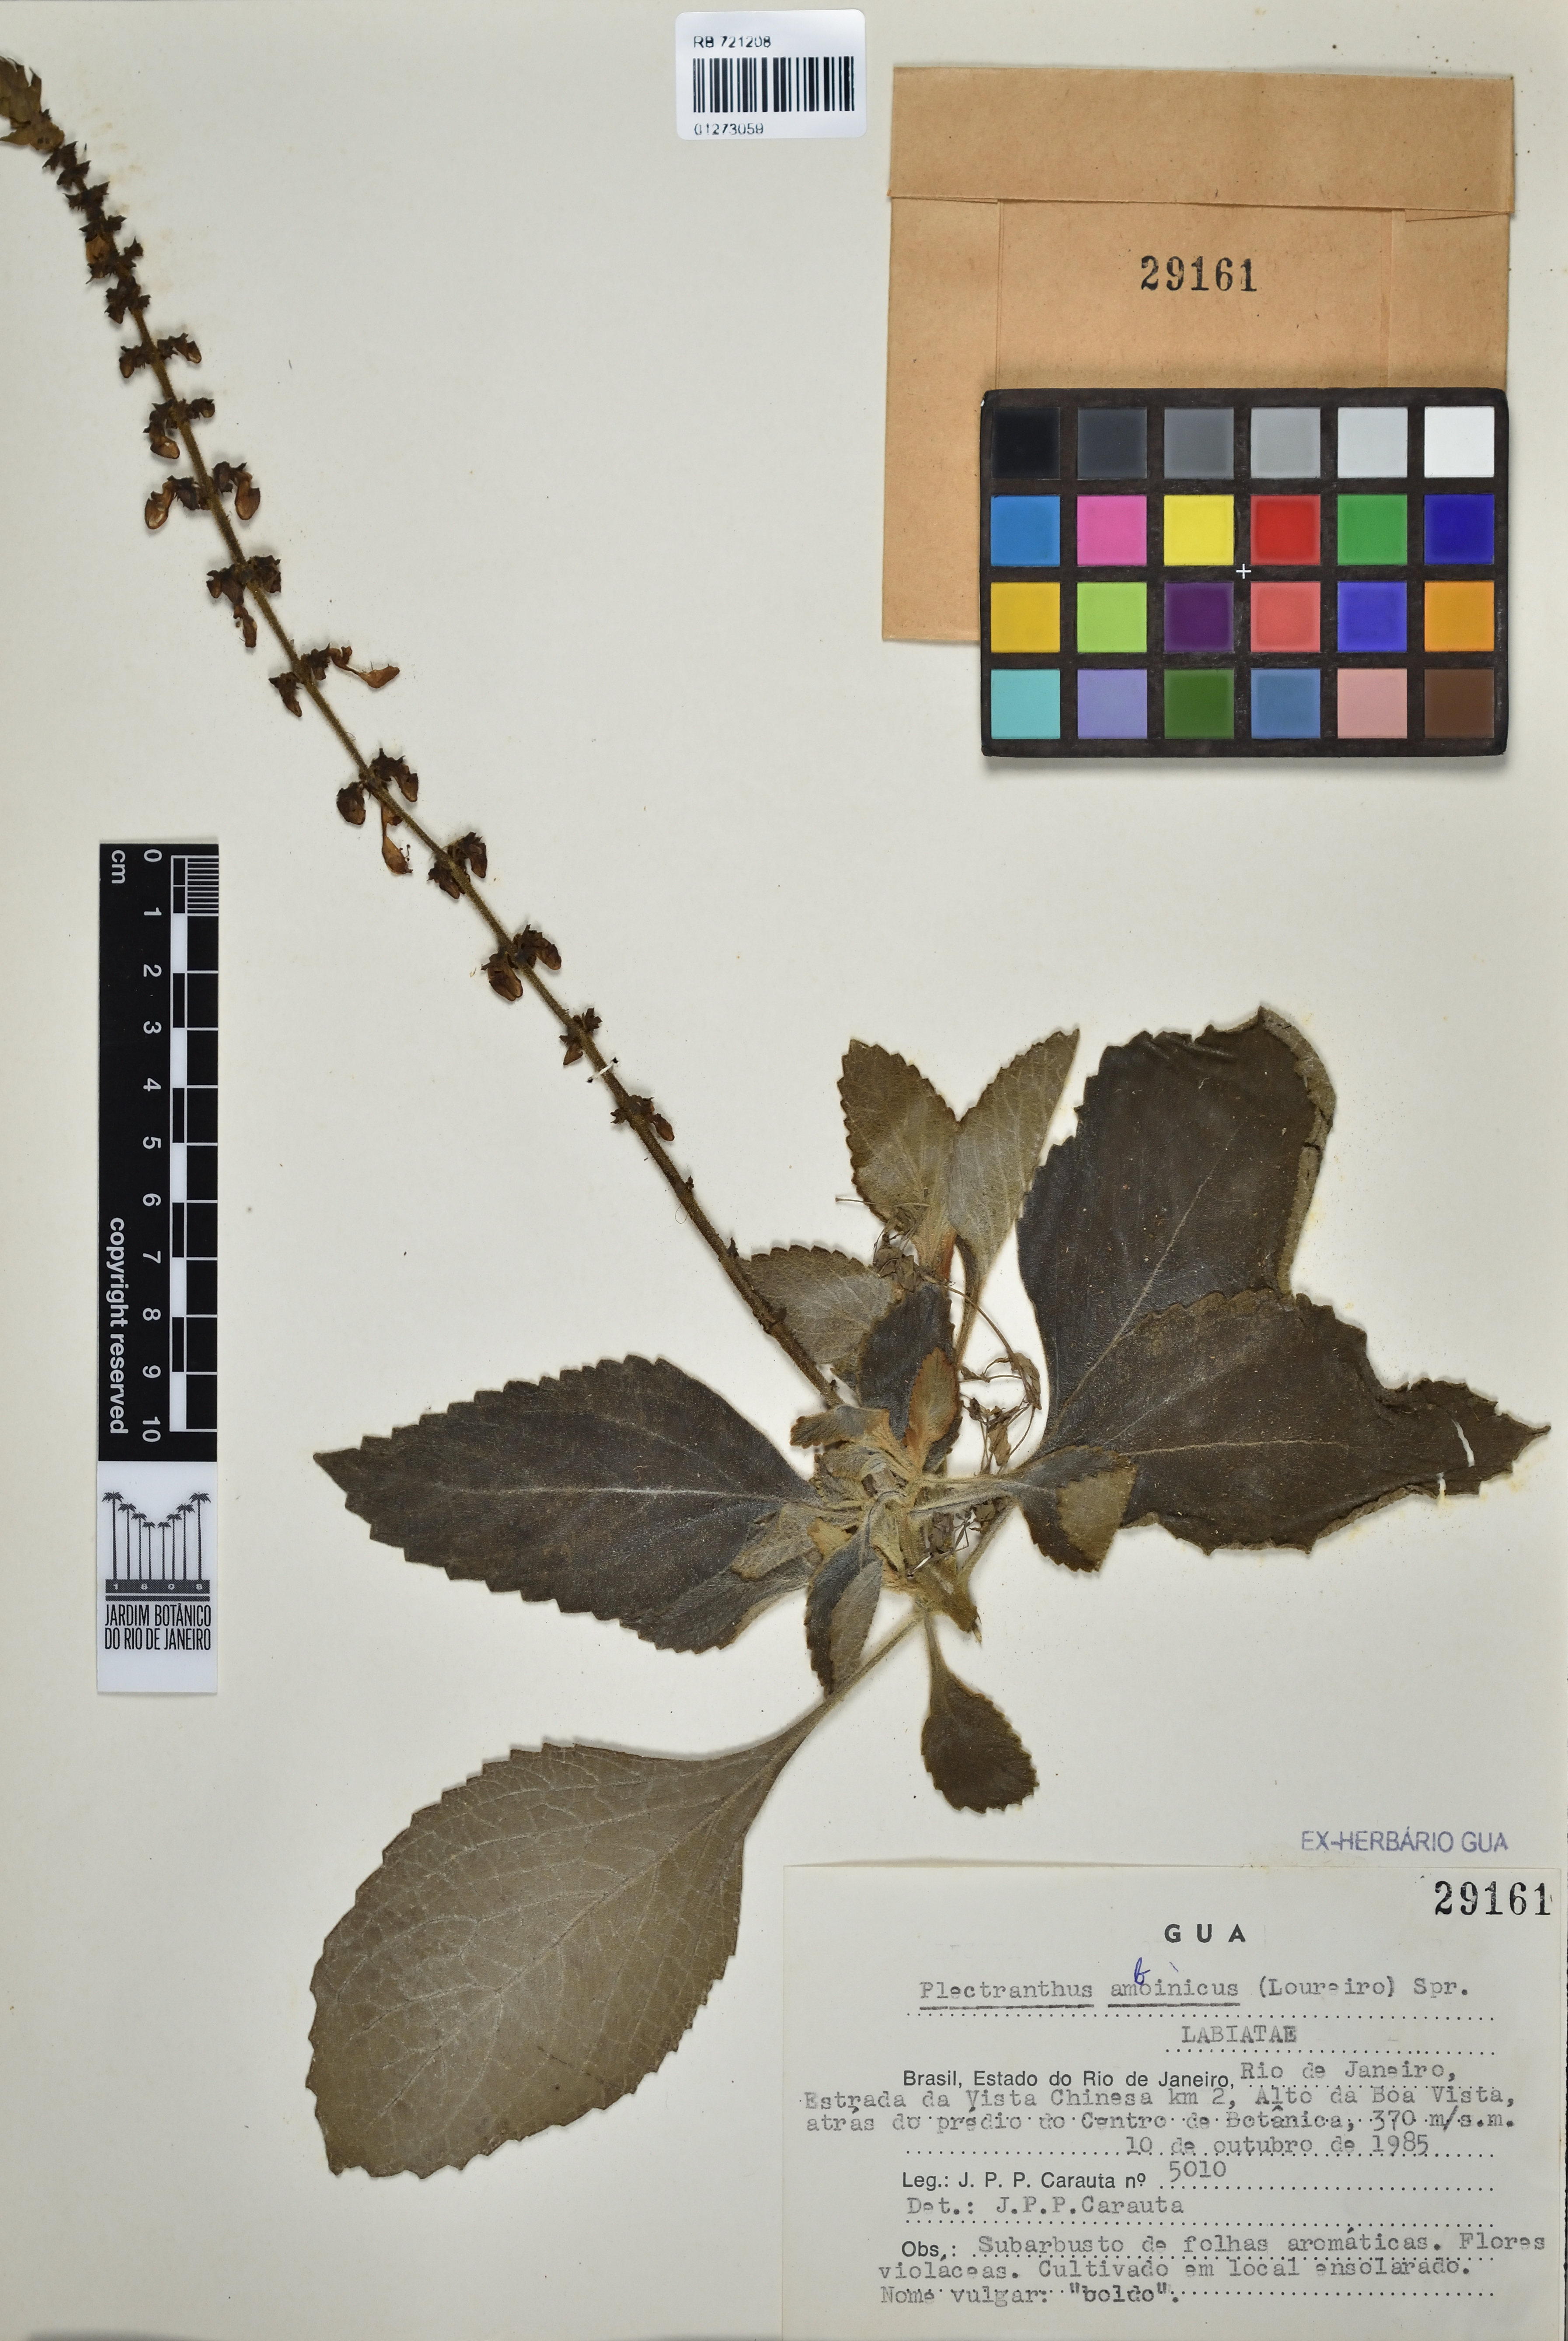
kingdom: Plantae
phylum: Tracheophyta
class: Magnoliopsida
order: Lamiales
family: Lamiaceae
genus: Coleus
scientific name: Coleus amboinicus
